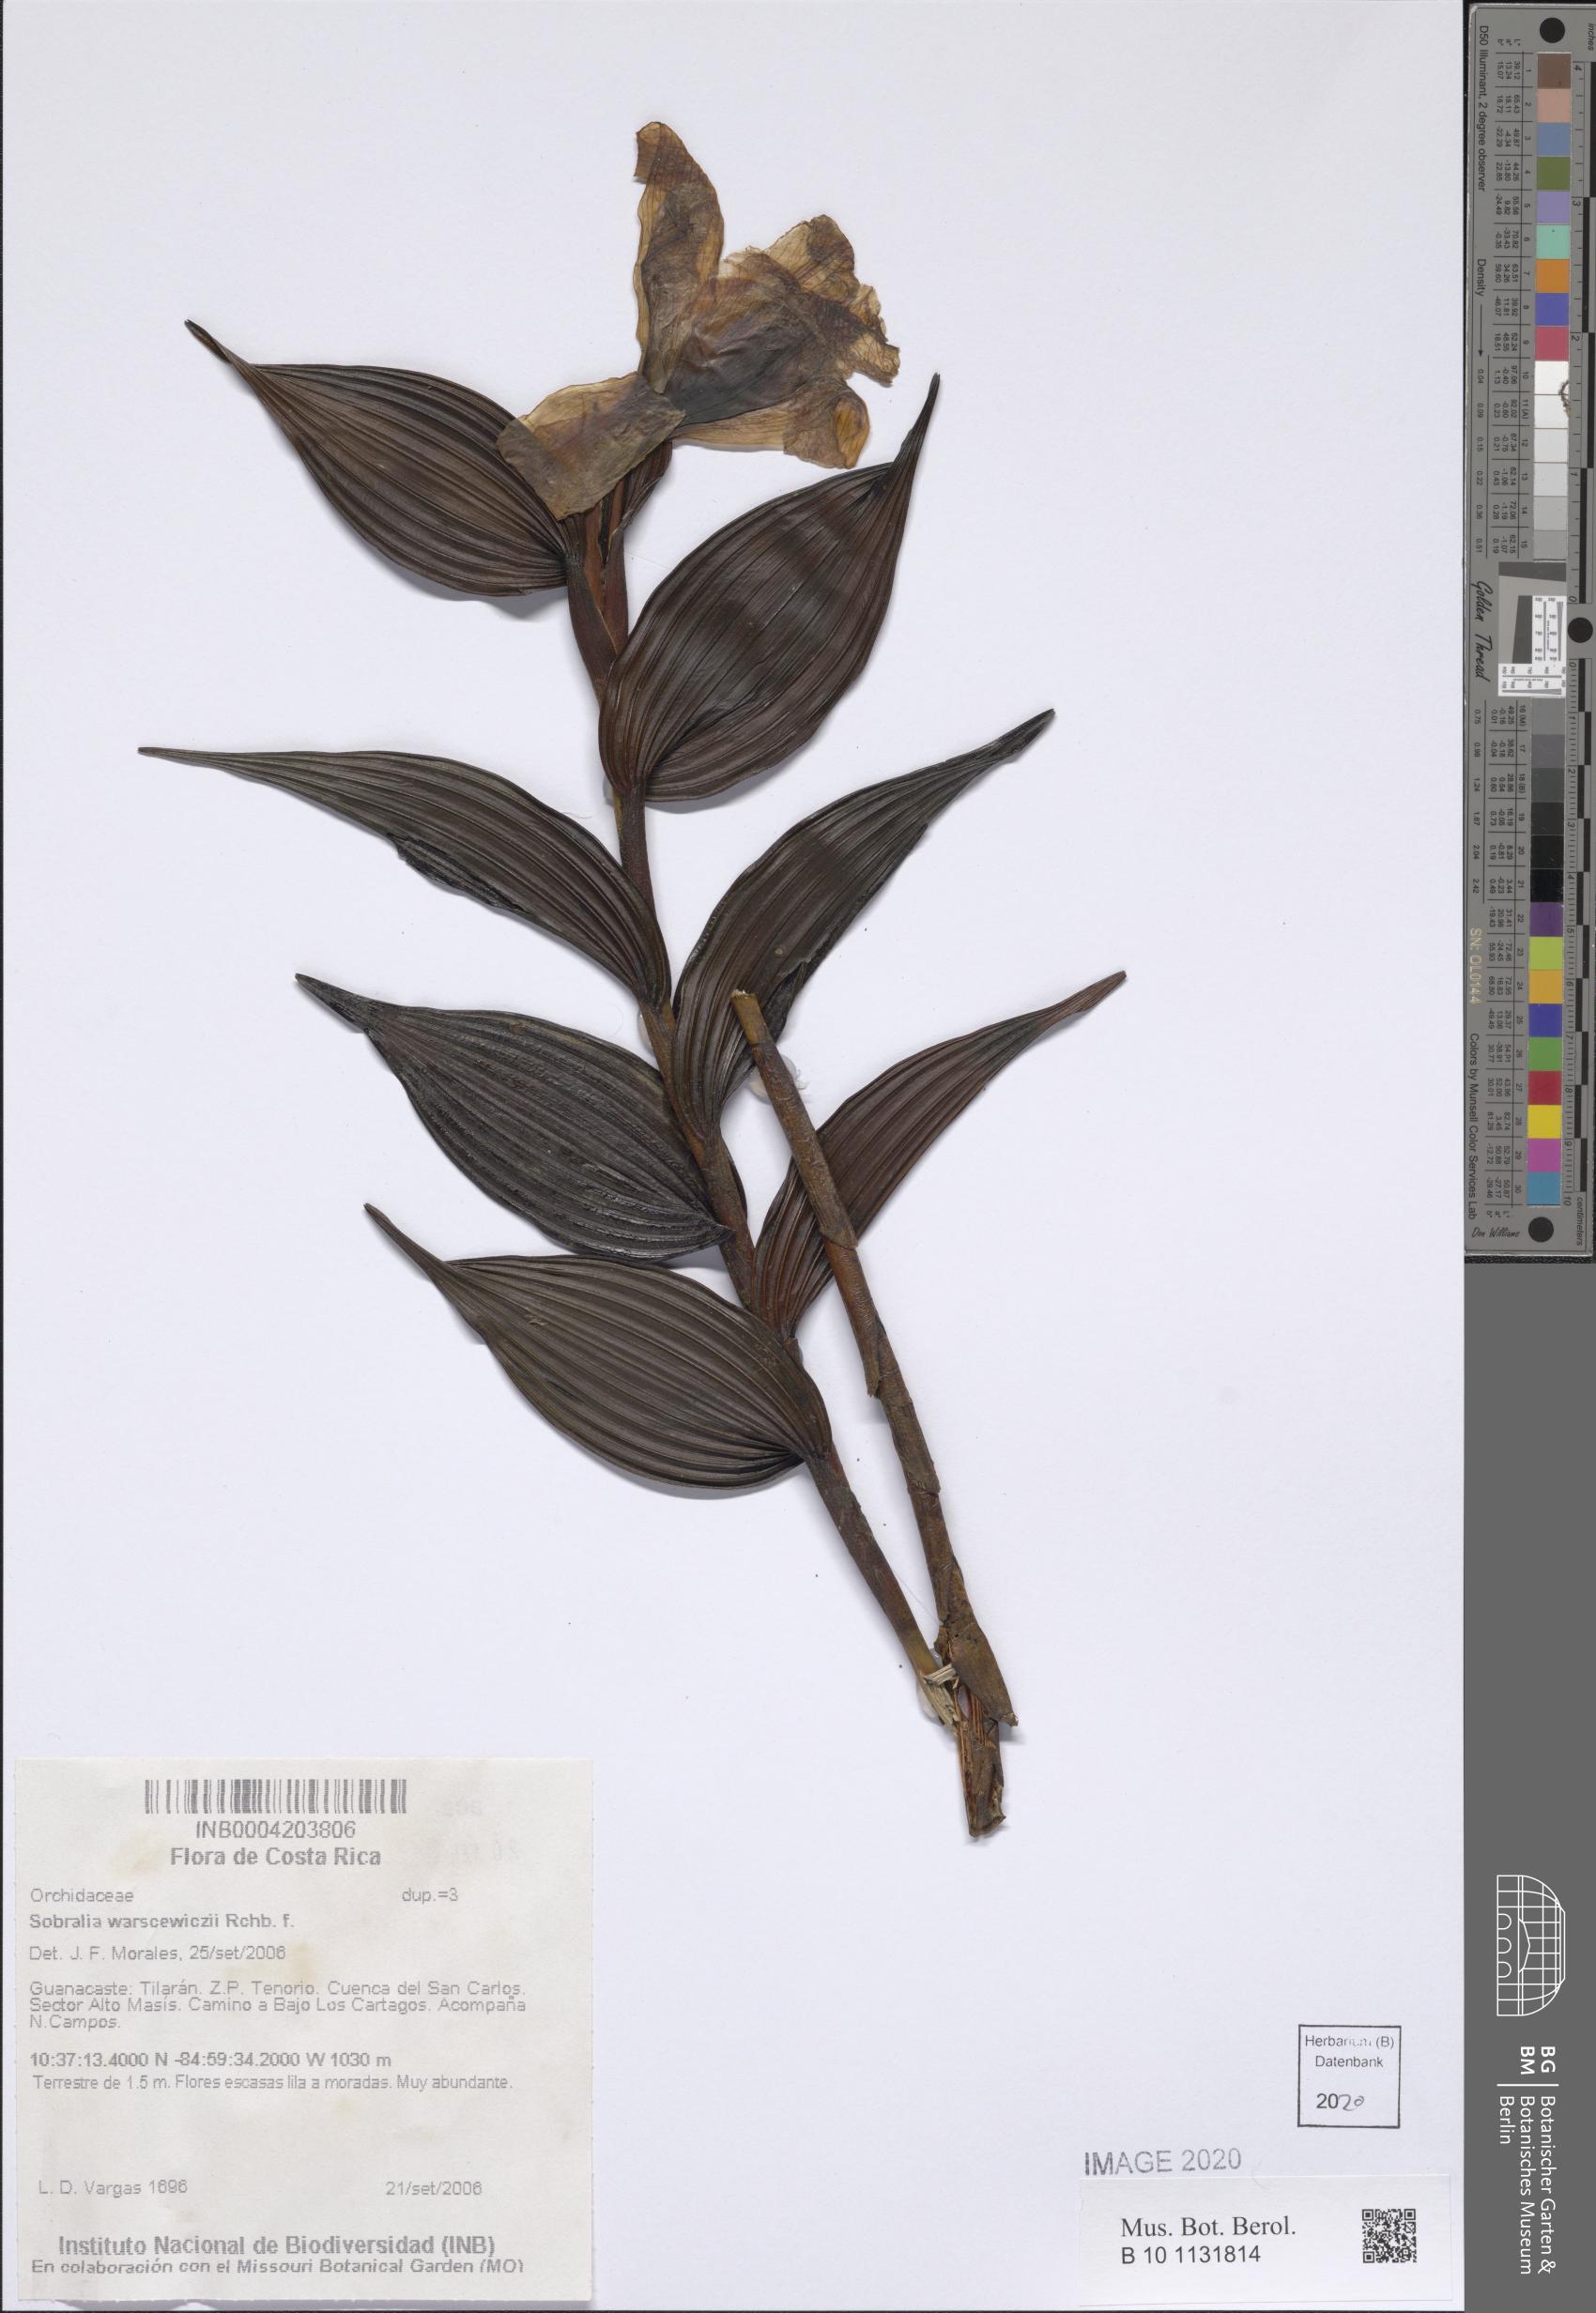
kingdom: Plantae
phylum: Tracheophyta
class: Liliopsida
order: Asparagales
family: Orchidaceae
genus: Sobralia
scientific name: Sobralia warszewiczii
